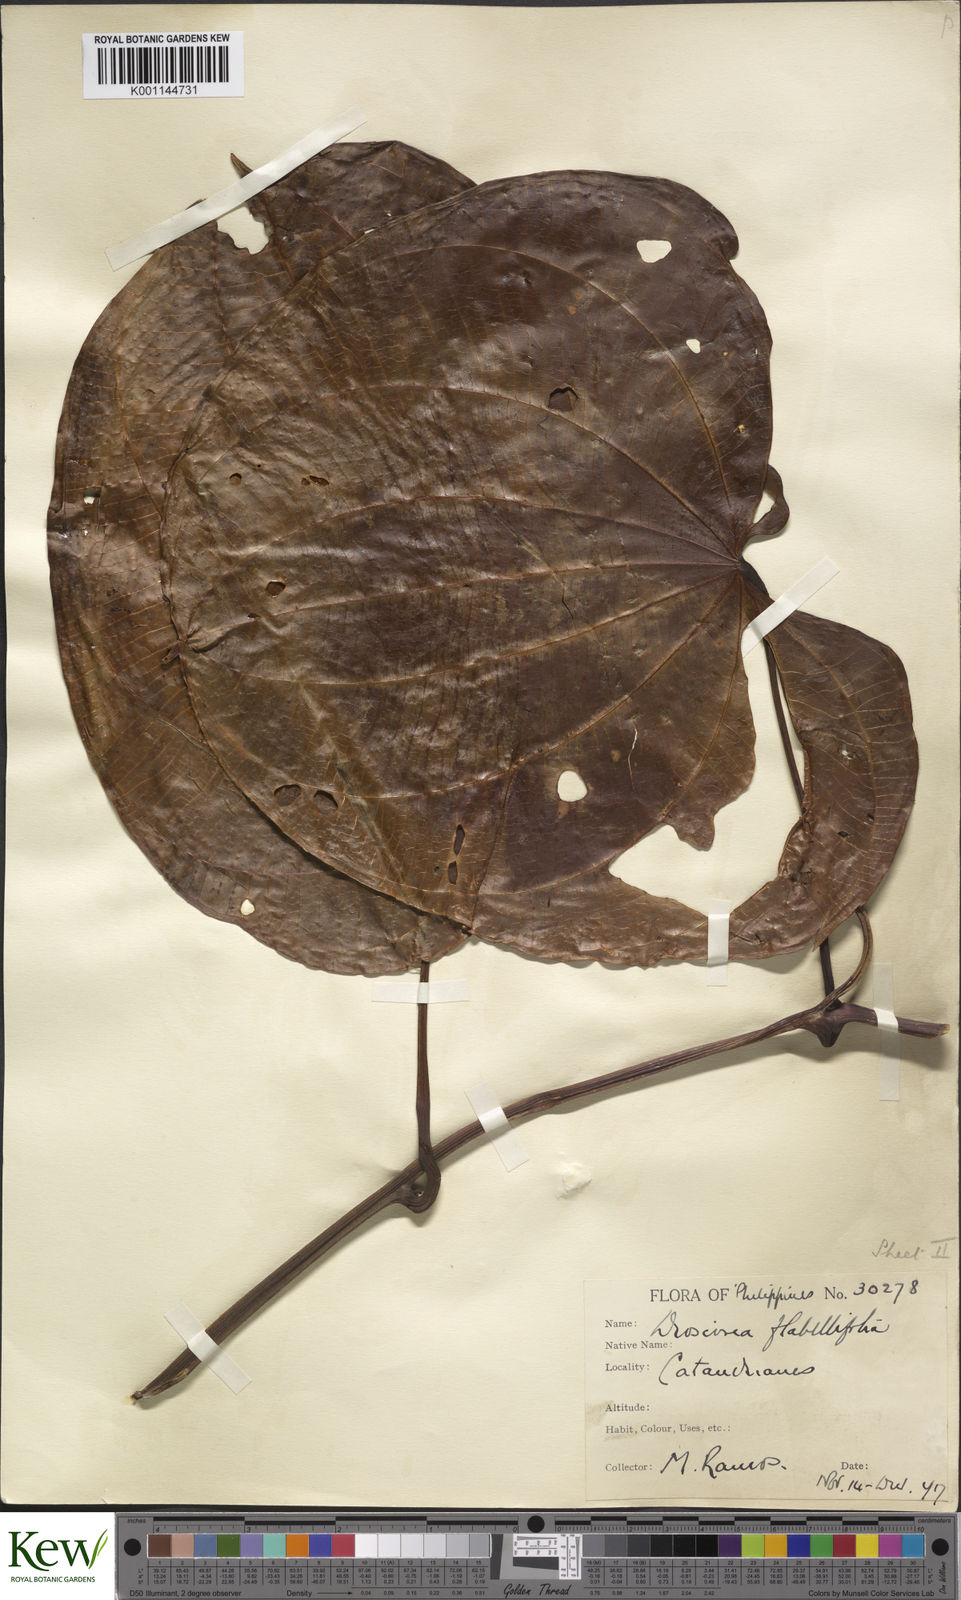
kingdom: Plantae
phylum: Tracheophyta
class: Liliopsida
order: Dioscoreales
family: Dioscoreaceae
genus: Dioscorea
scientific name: Dioscorea flabellifolia
